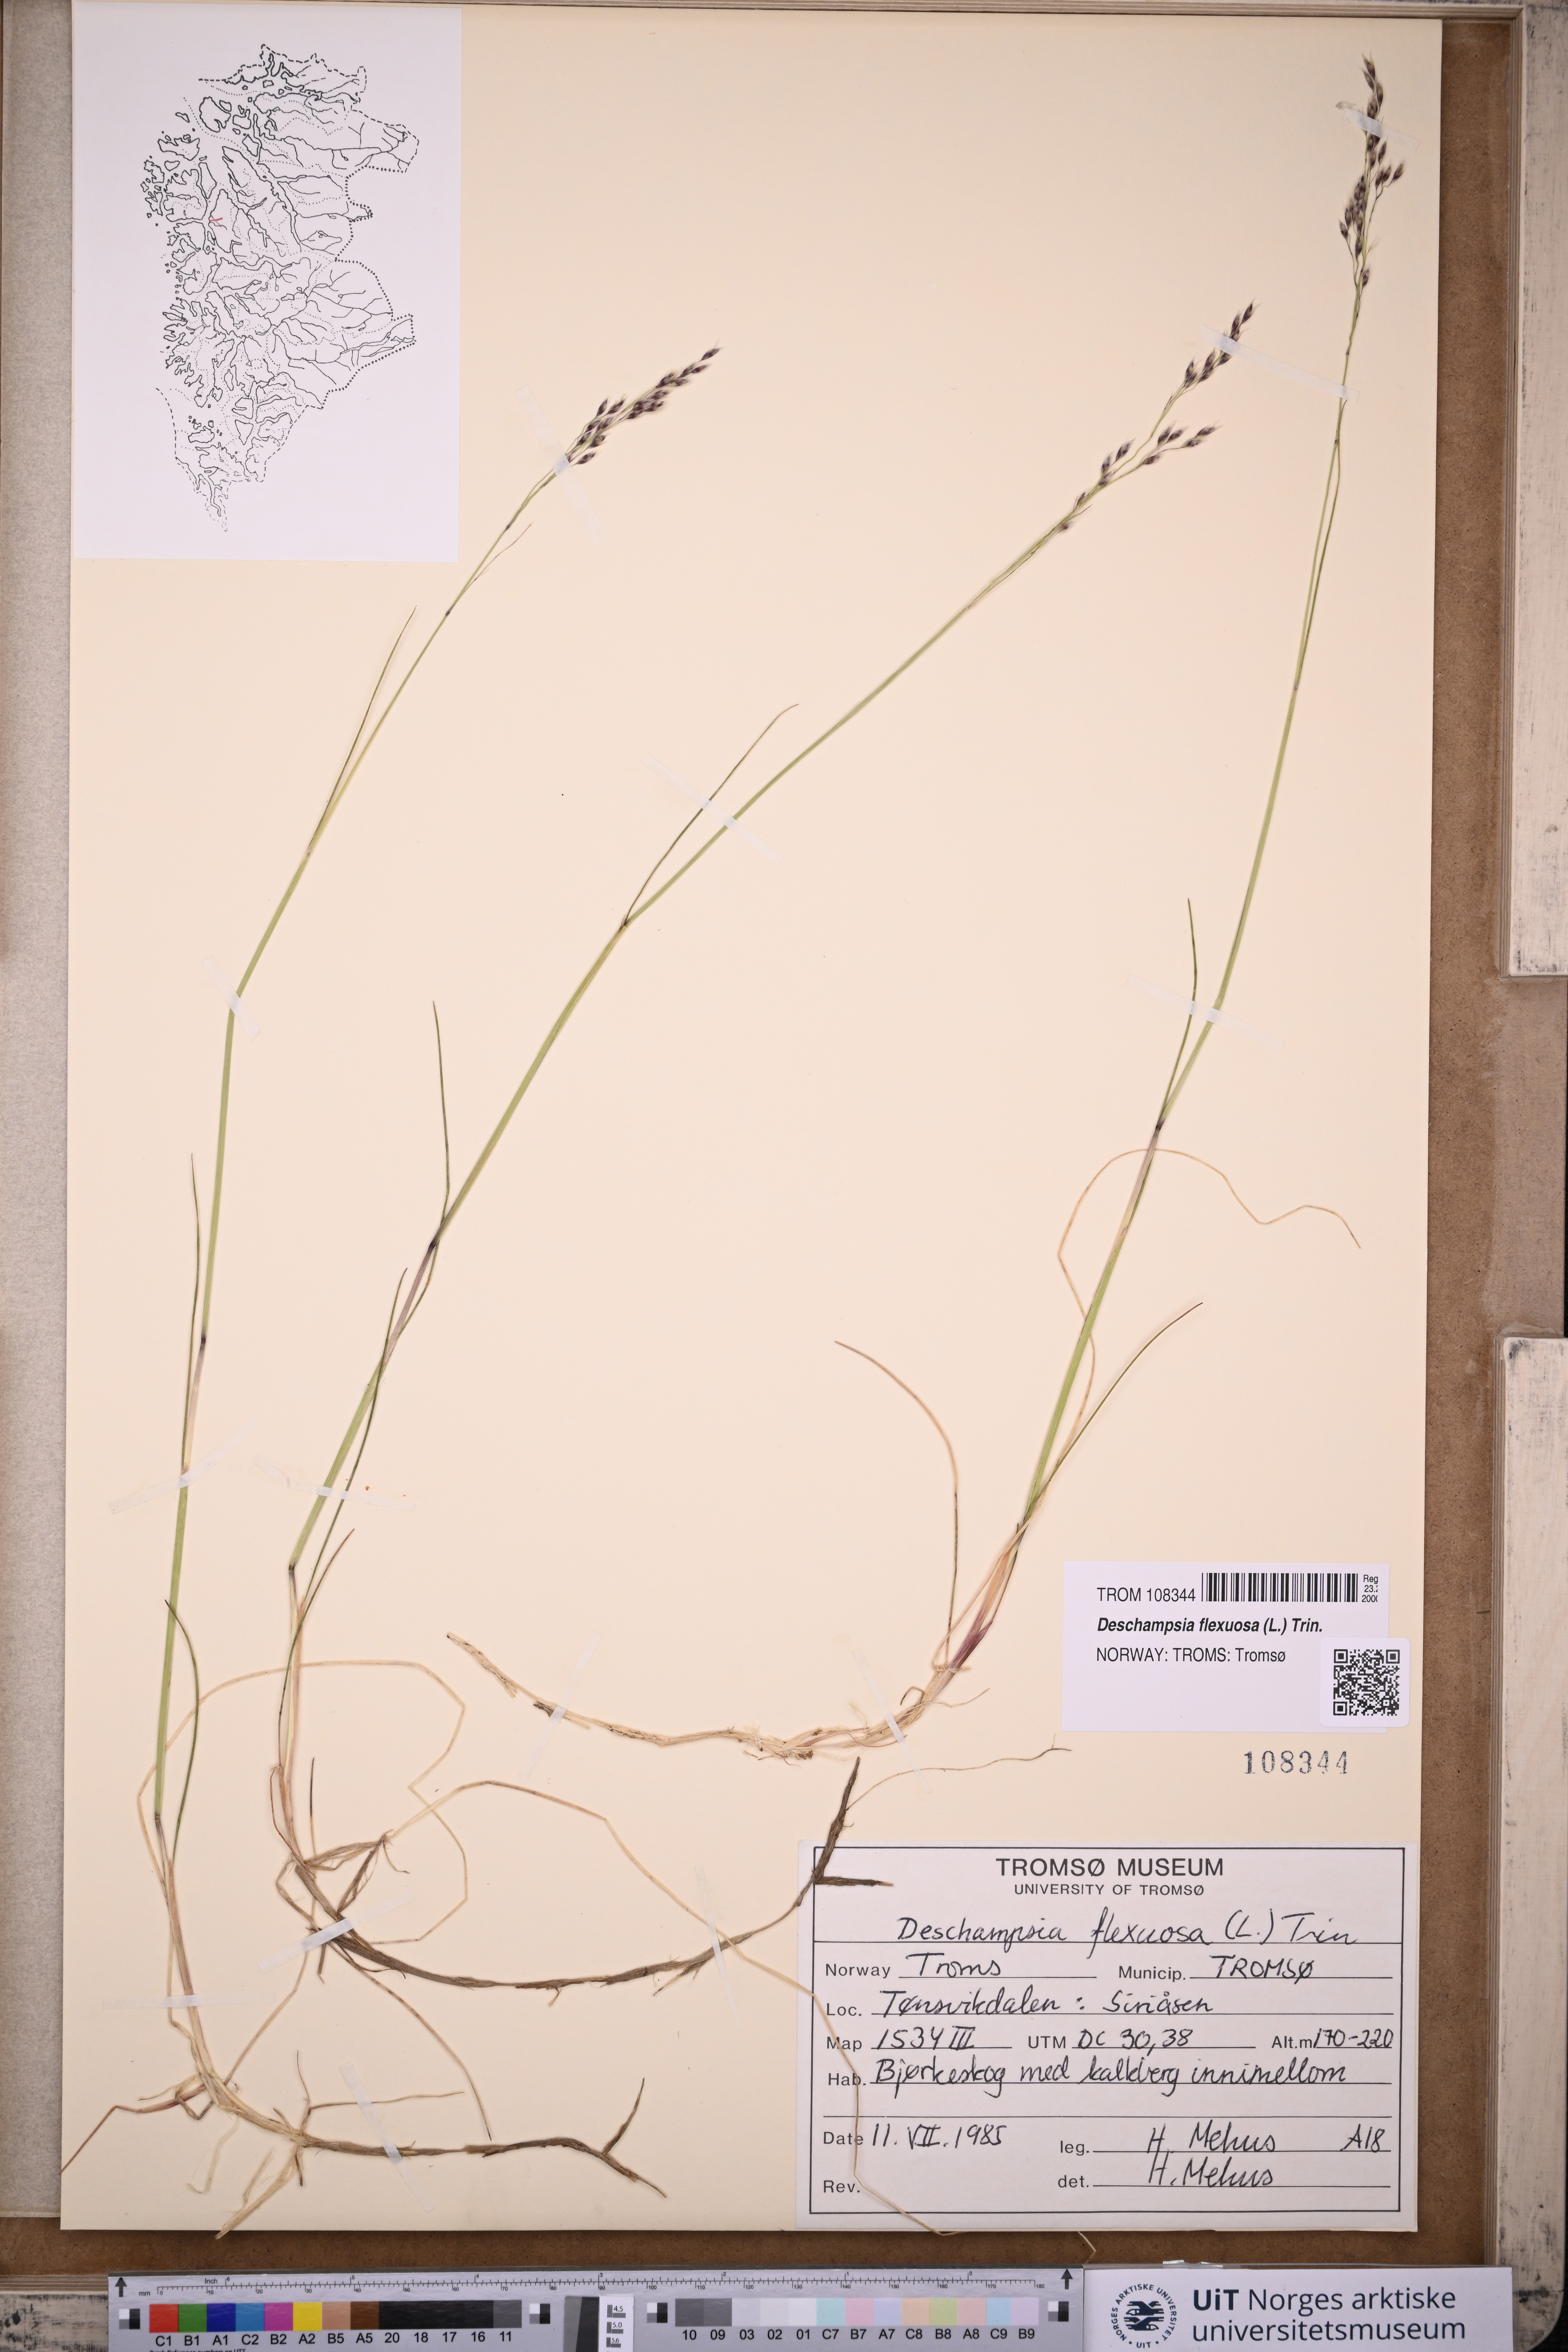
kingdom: Plantae
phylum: Tracheophyta
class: Liliopsida
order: Poales
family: Poaceae
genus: Avenella
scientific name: Avenella flexuosa
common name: Wavy hairgrass
